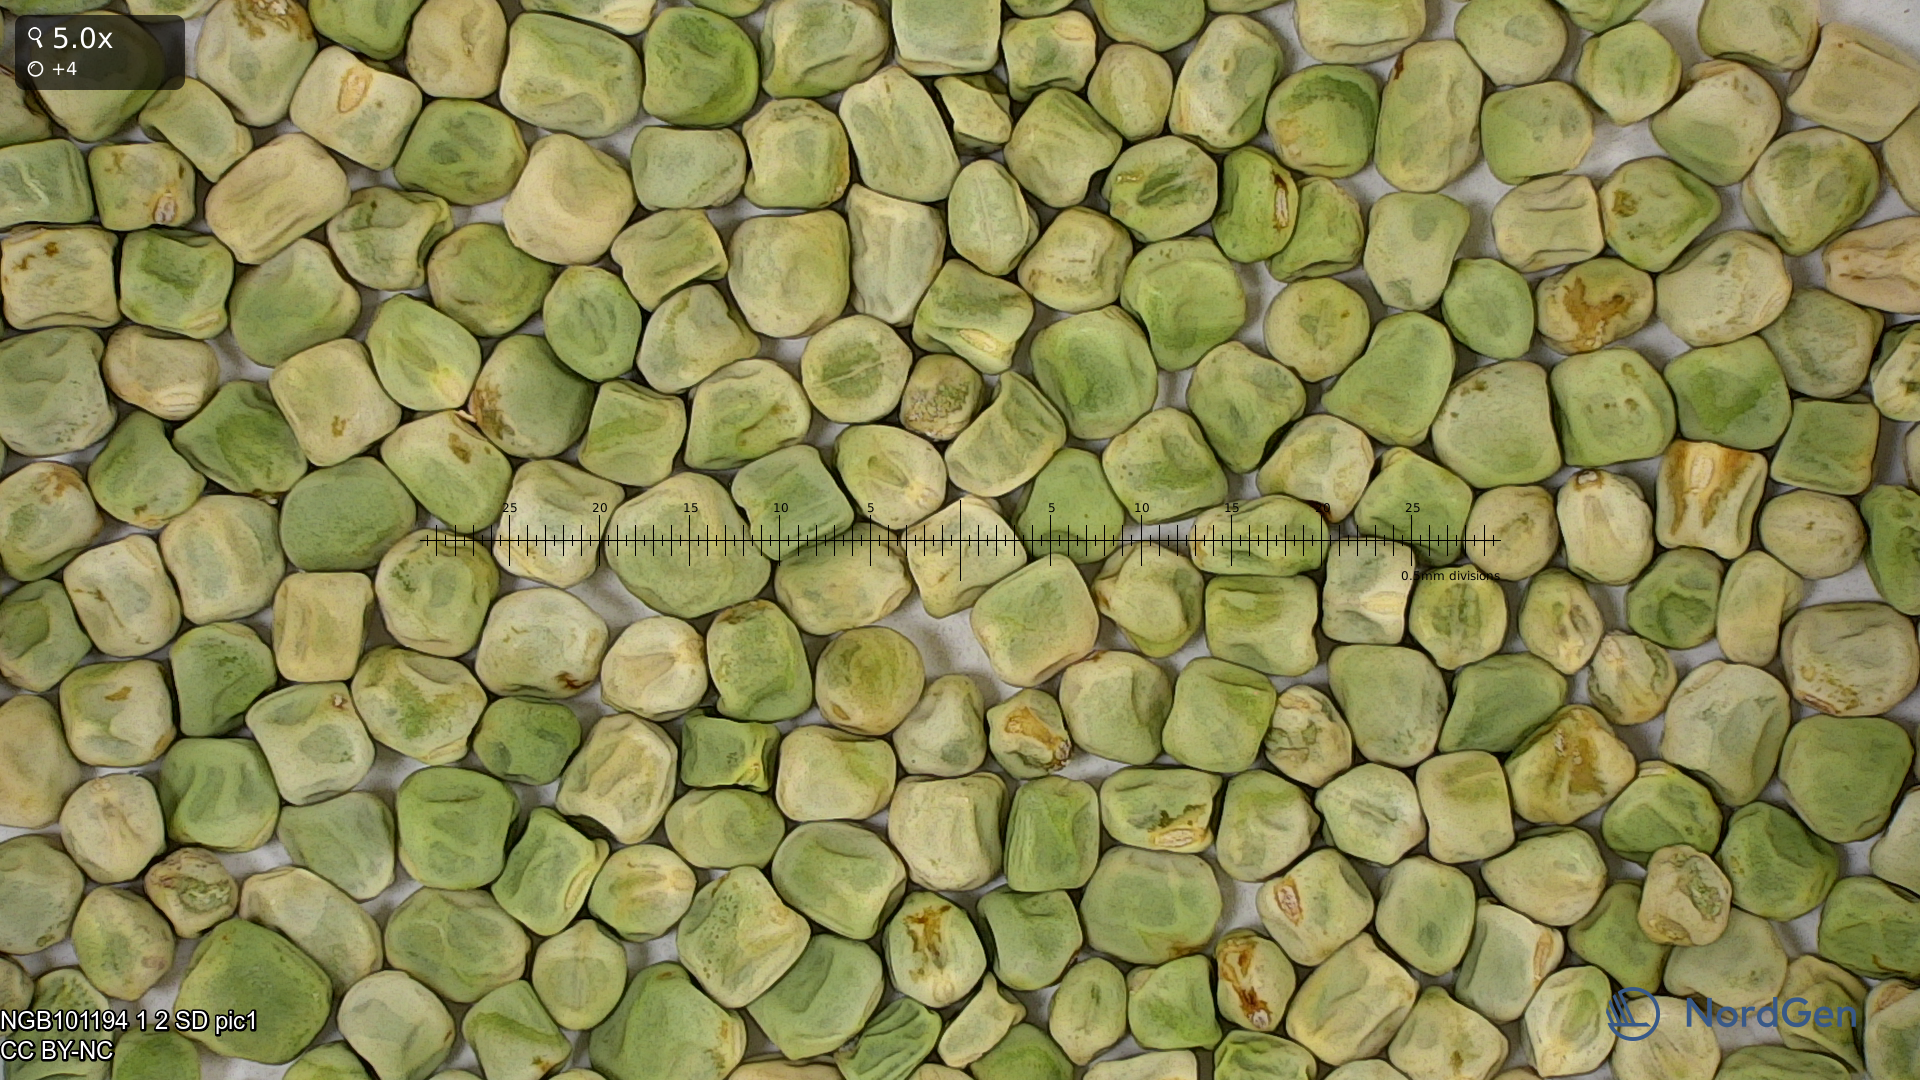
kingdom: Plantae
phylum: Tracheophyta
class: Magnoliopsida
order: Fabales
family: Fabaceae
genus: Lathyrus
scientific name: Lathyrus oleraceus
